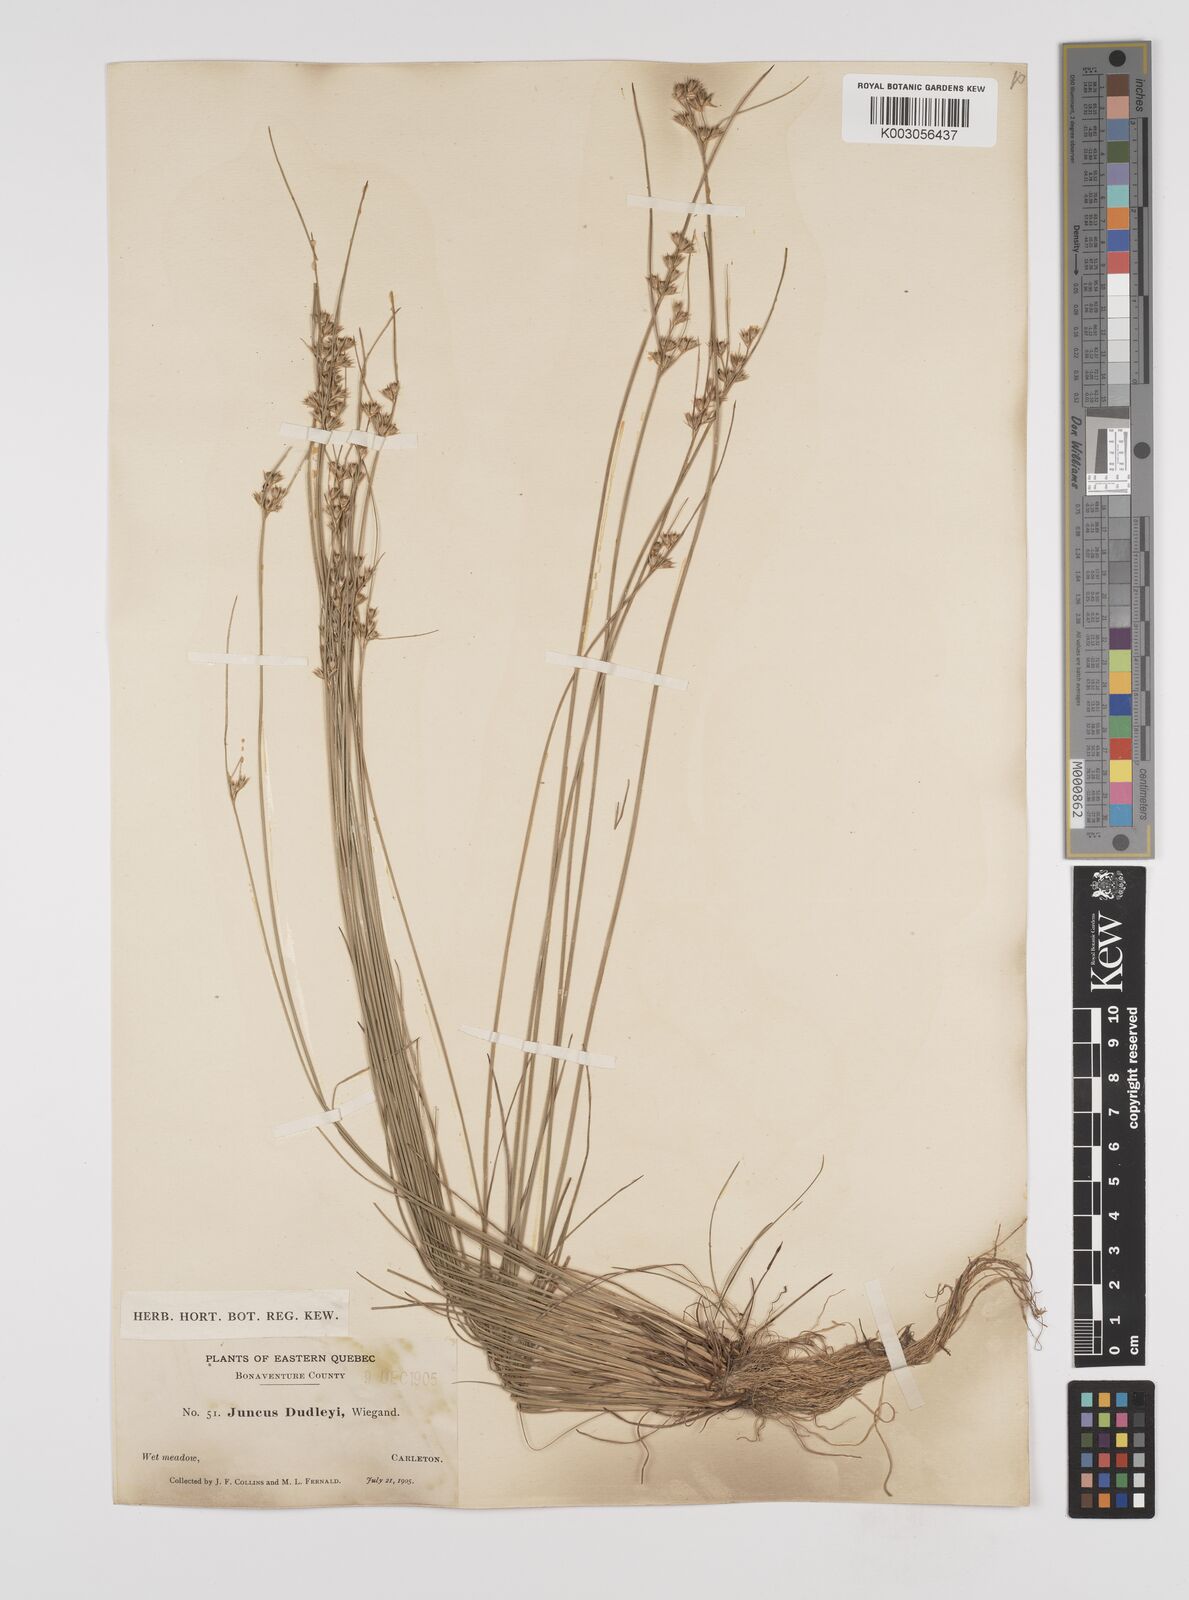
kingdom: Plantae
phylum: Tracheophyta
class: Liliopsida
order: Poales
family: Juncaceae
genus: Juncus
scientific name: Juncus dudleyi
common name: Dudley's rush
